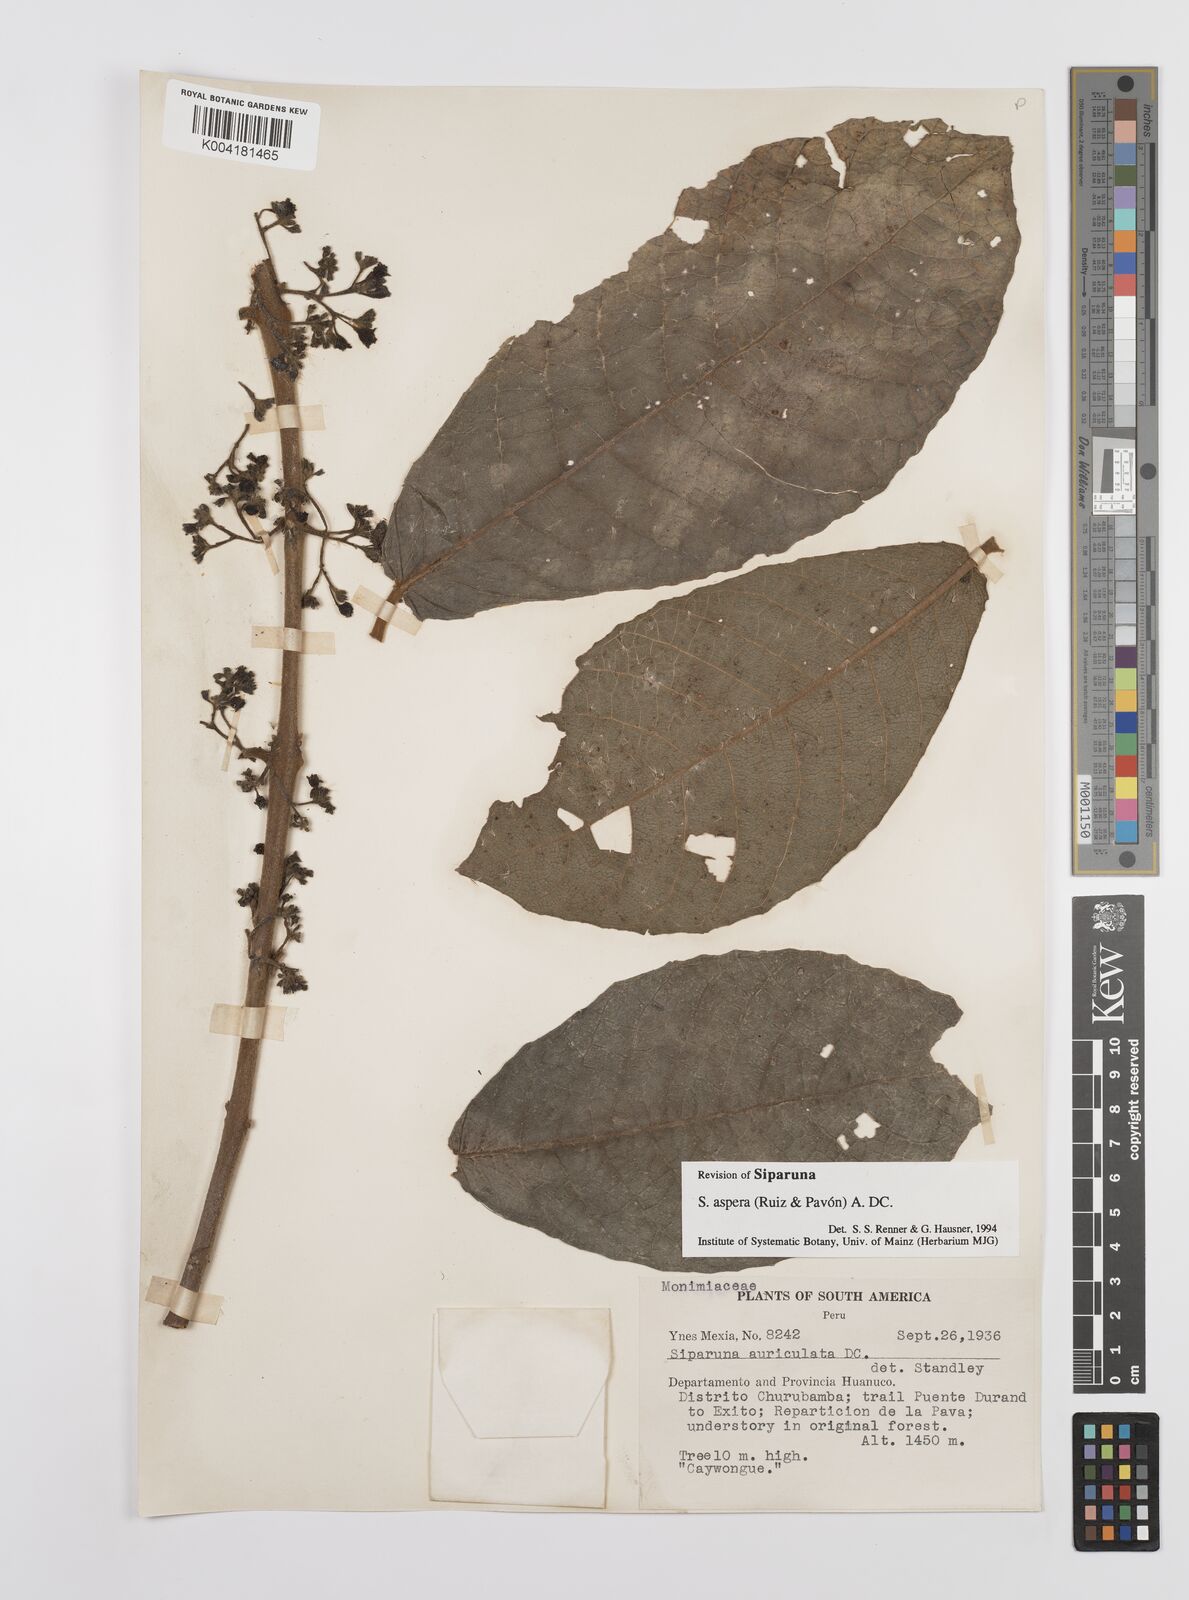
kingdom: Plantae
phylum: Tracheophyta
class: Magnoliopsida
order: Laurales
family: Siparunaceae
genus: Siparuna
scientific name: Siparuna aspera
